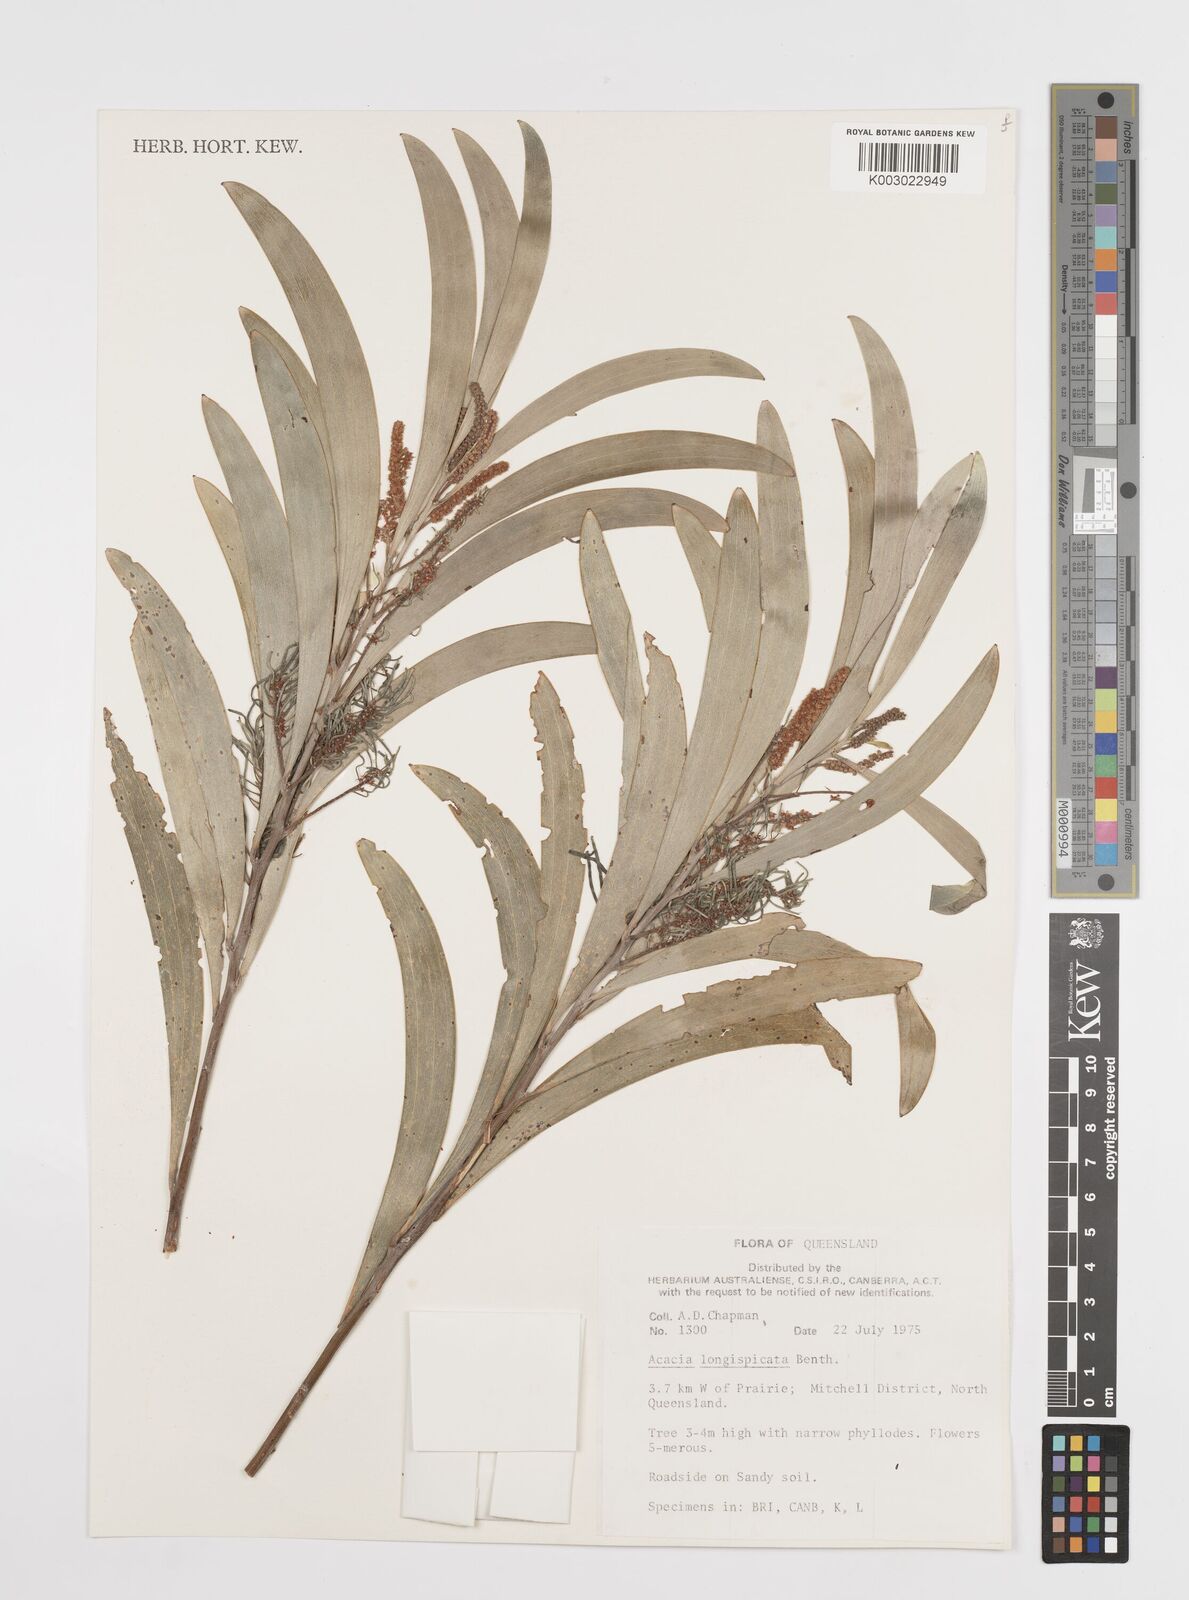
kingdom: Plantae
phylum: Tracheophyta
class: Magnoliopsida
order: Fabales
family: Fabaceae
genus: Acacia
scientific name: Acacia longispicata
